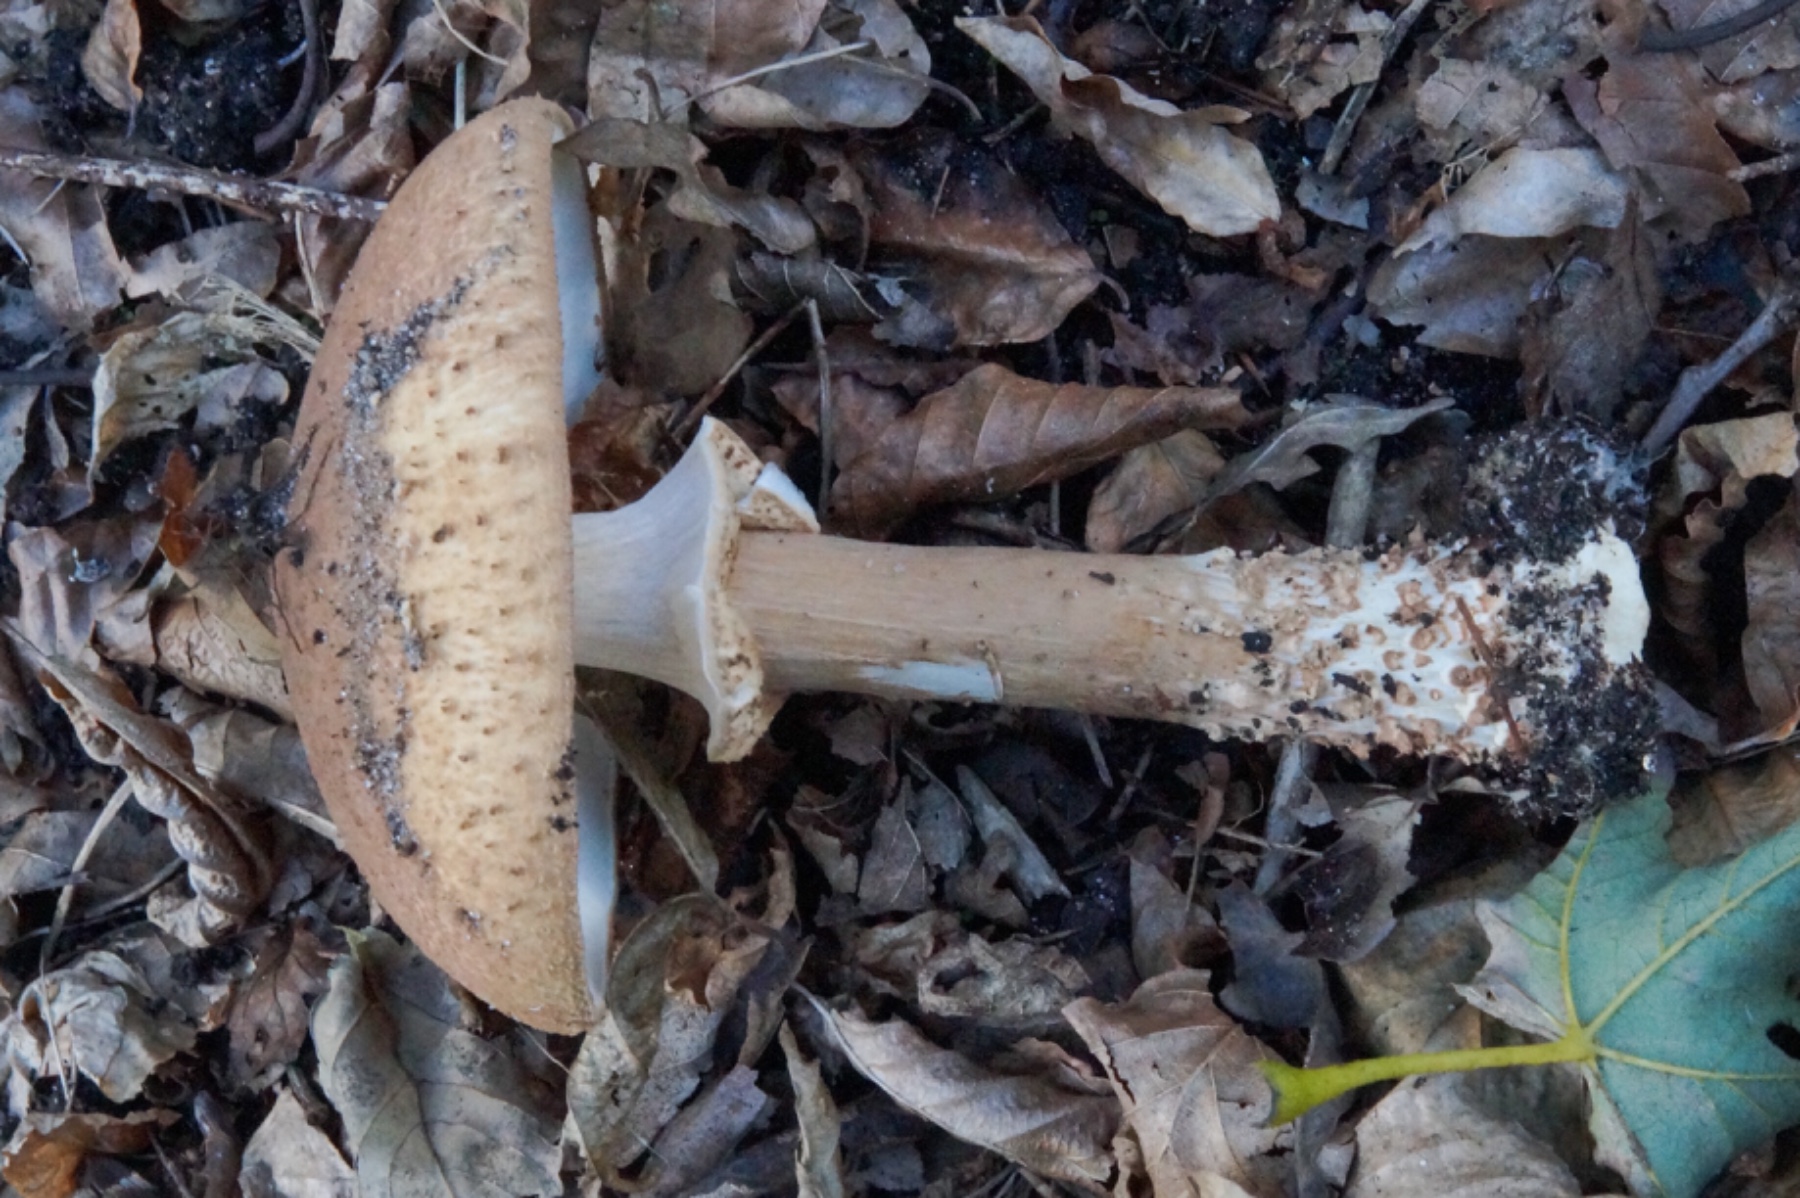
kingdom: Fungi
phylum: Basidiomycota
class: Agaricomycetes
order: Agaricales
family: Agaricaceae
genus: Echinoderma
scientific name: Echinoderma asperum
